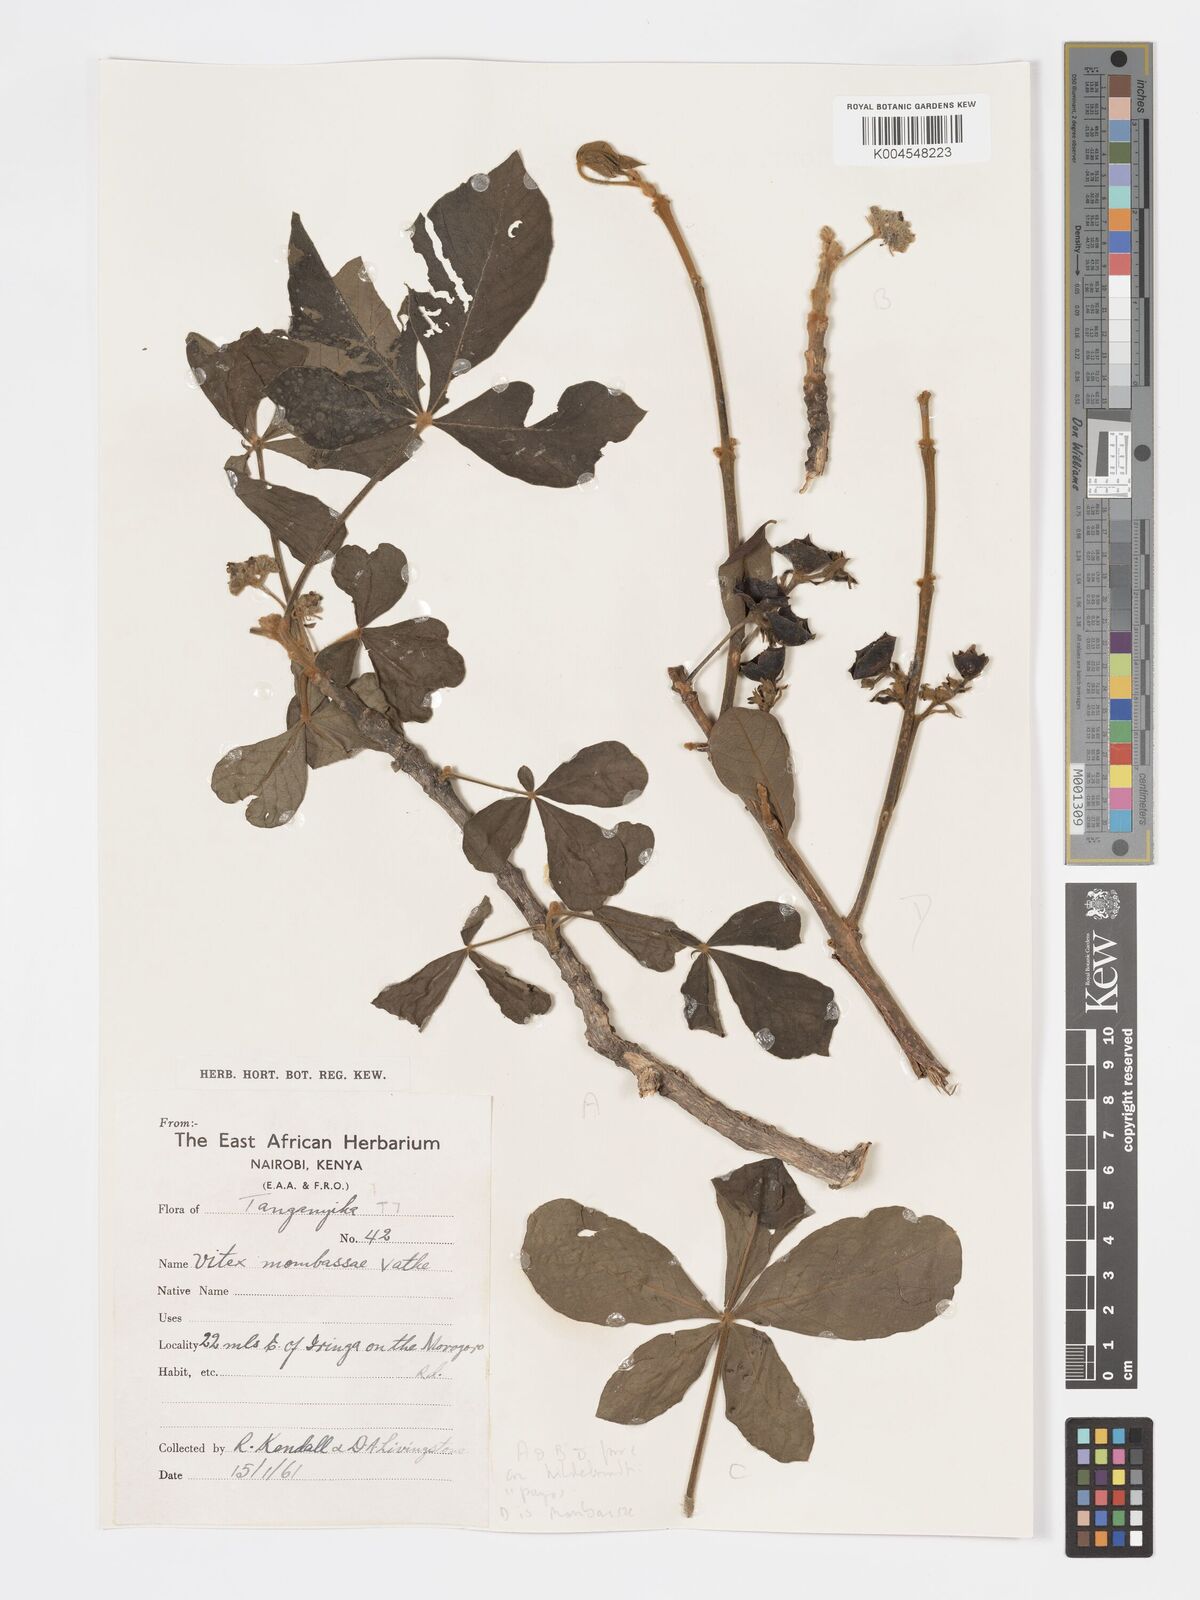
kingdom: Plantae
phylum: Tracheophyta
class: Magnoliopsida
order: Lamiales
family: Lamiaceae
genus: Vitex
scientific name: Vitex payos
